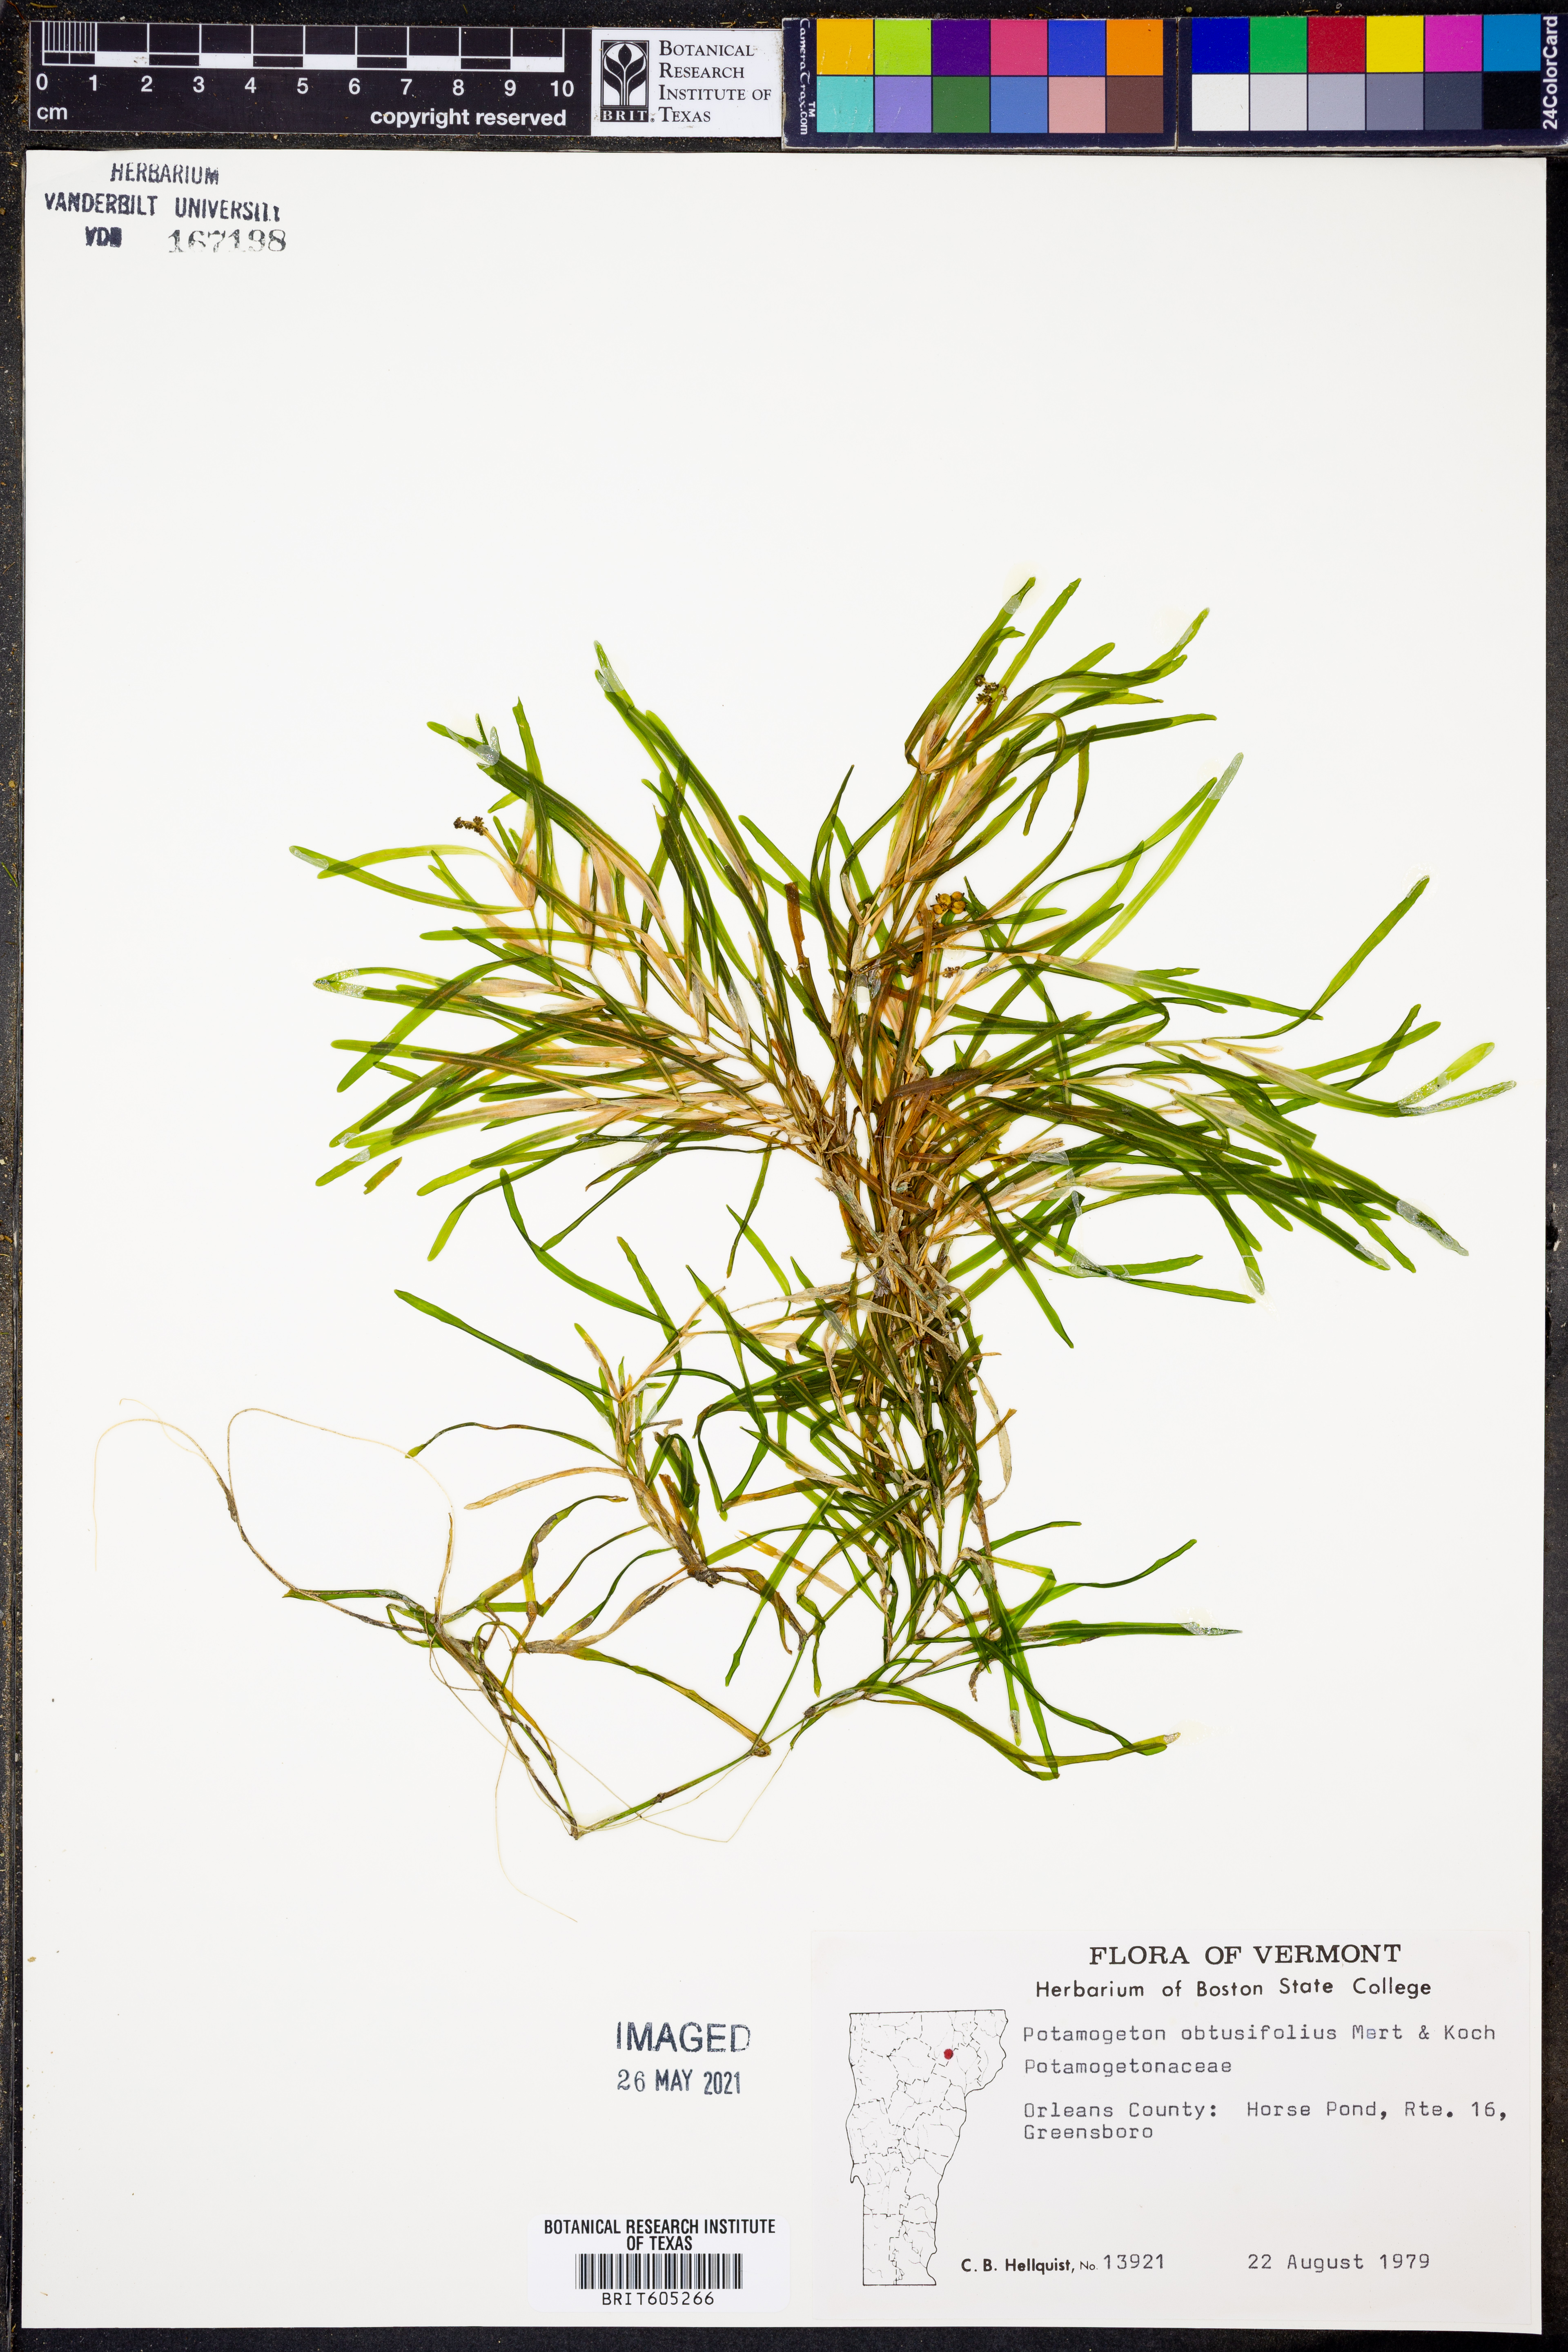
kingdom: Plantae
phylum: Tracheophyta
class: Liliopsida
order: Alismatales
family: Potamogetonaceae
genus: Potamogeton
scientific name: Potamogeton obtusifolius
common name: Blunt-leaved pondweed
